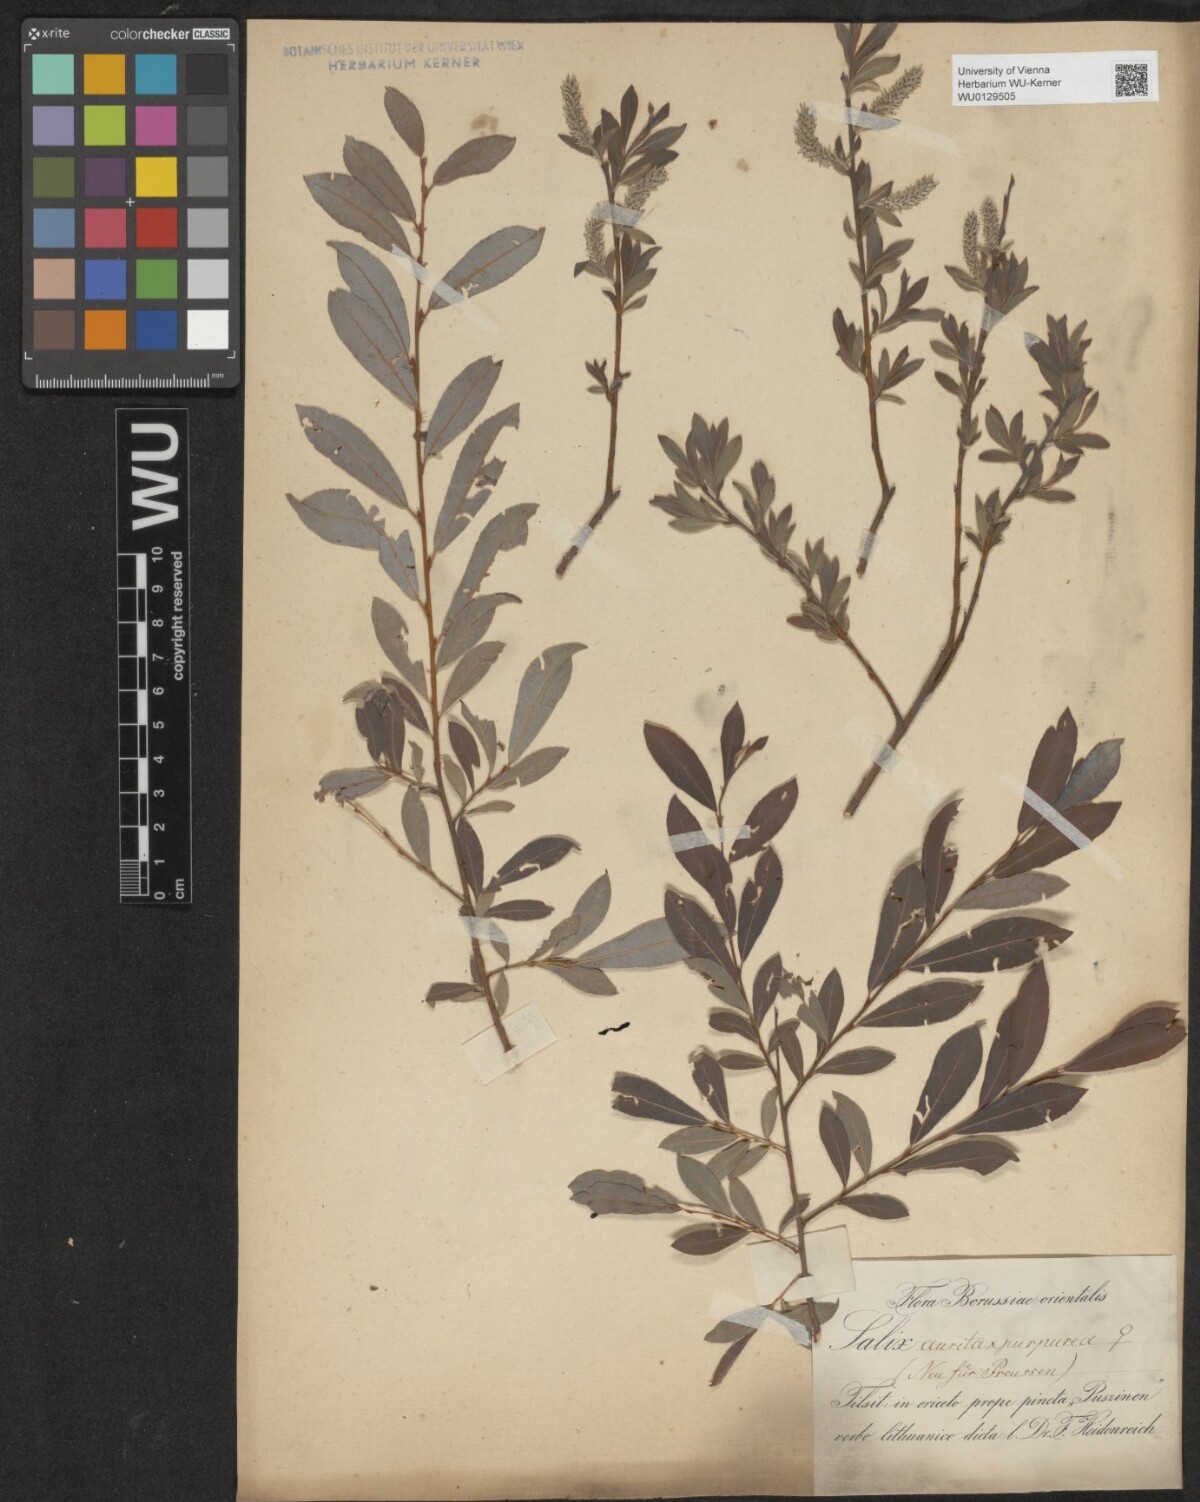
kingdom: Plantae
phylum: Tracheophyta
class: Magnoliopsida
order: Malpighiales
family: Salicaceae
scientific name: Salicaceae
